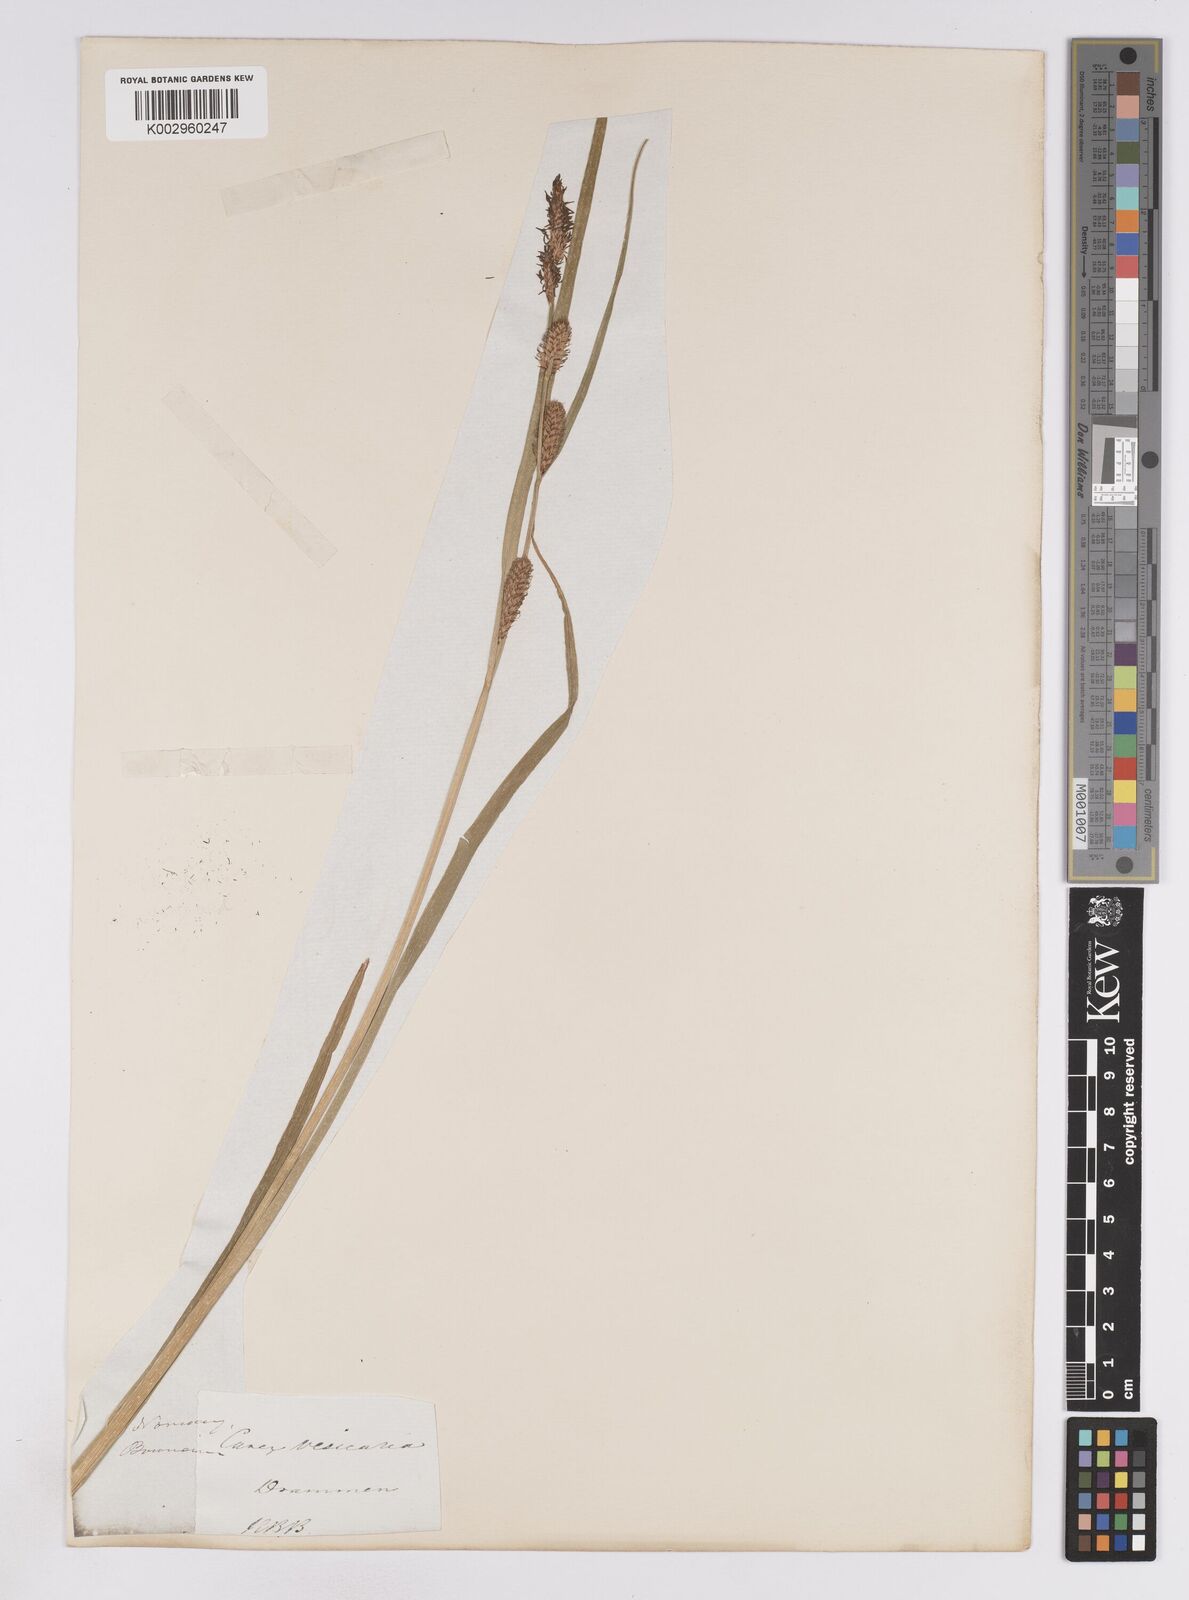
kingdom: Plantae
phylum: Tracheophyta
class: Liliopsida
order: Poales
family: Cyperaceae
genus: Carex
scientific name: Carex vesicaria
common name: Bladder-sedge
